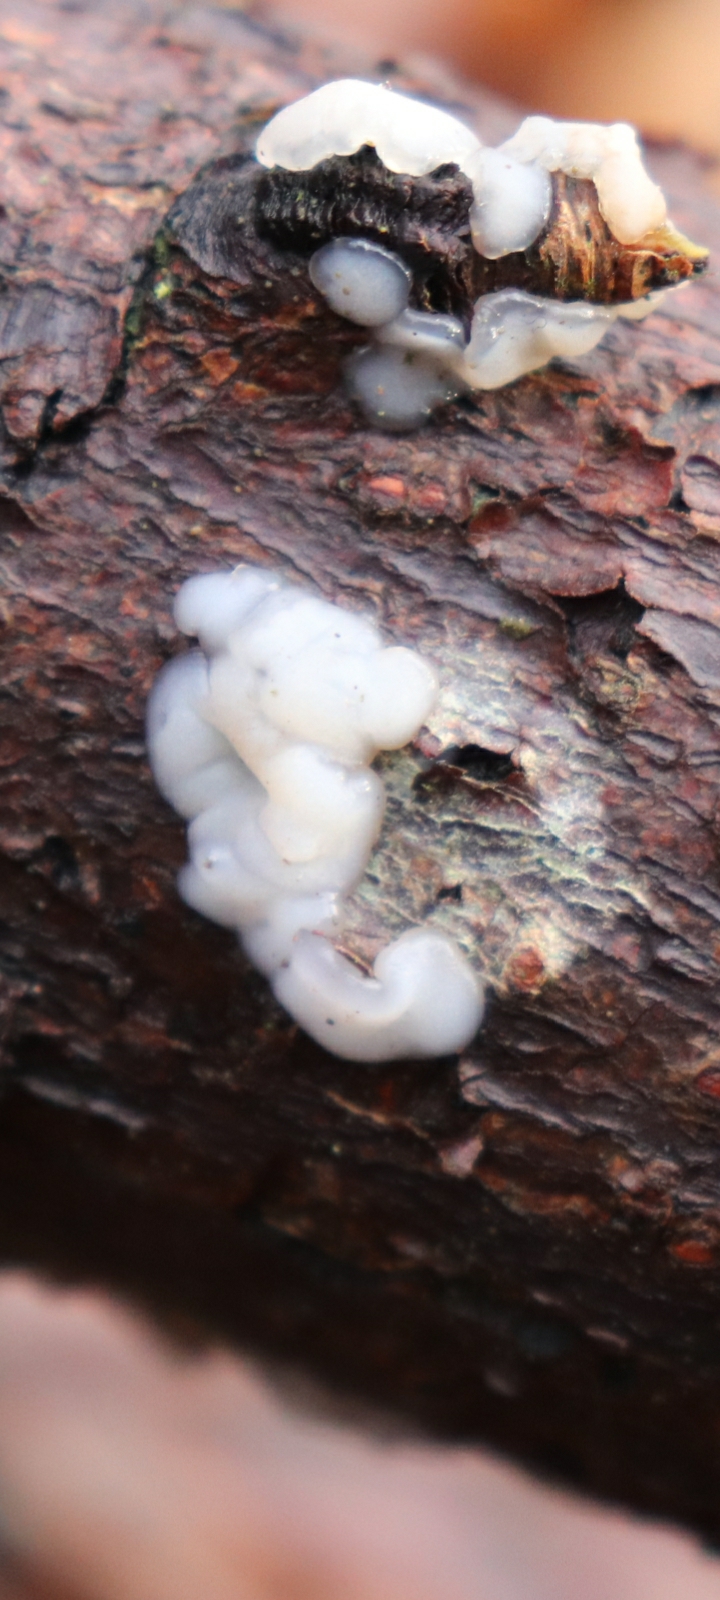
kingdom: Fungi
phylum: Basidiomycota
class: Agaricomycetes
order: Auriculariales
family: Auriculariaceae
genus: Exidia
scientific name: Exidia thuretiana
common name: hvidlig bævretop
